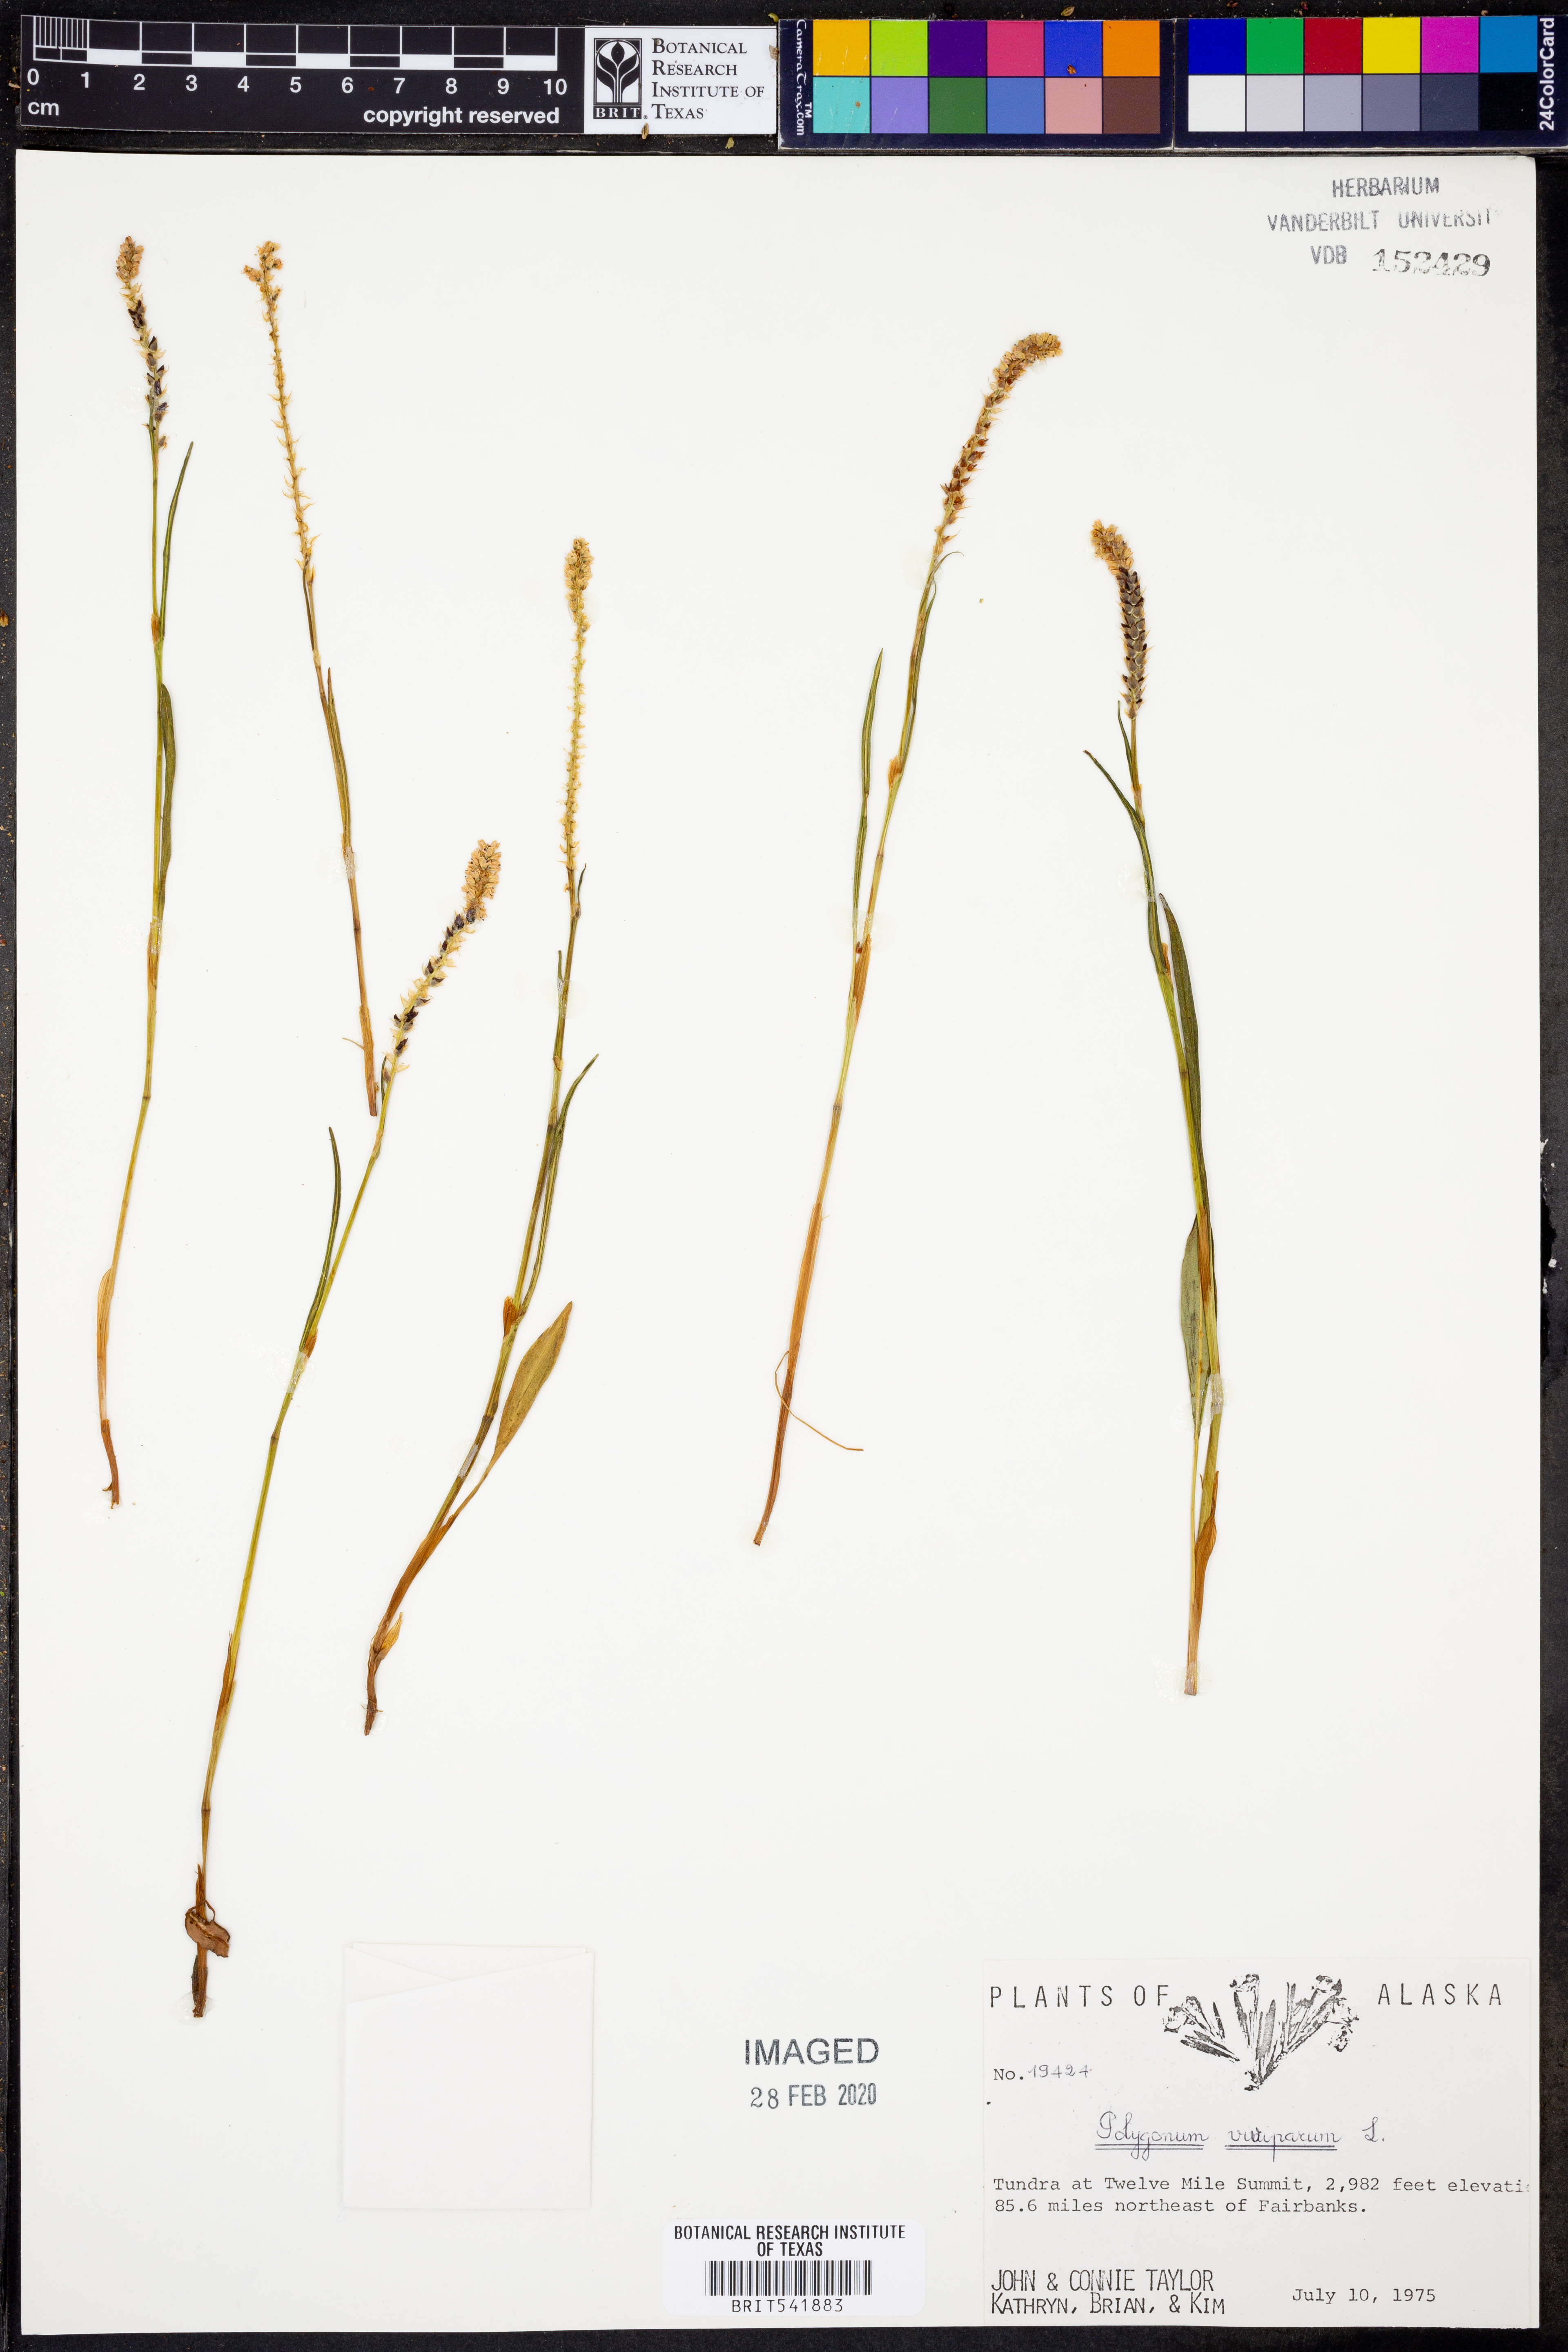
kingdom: Plantae
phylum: Tracheophyta
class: Magnoliopsida
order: Caryophyllales
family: Polygonaceae
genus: Bistorta
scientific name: Bistorta vivipara
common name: Alpine bistort
